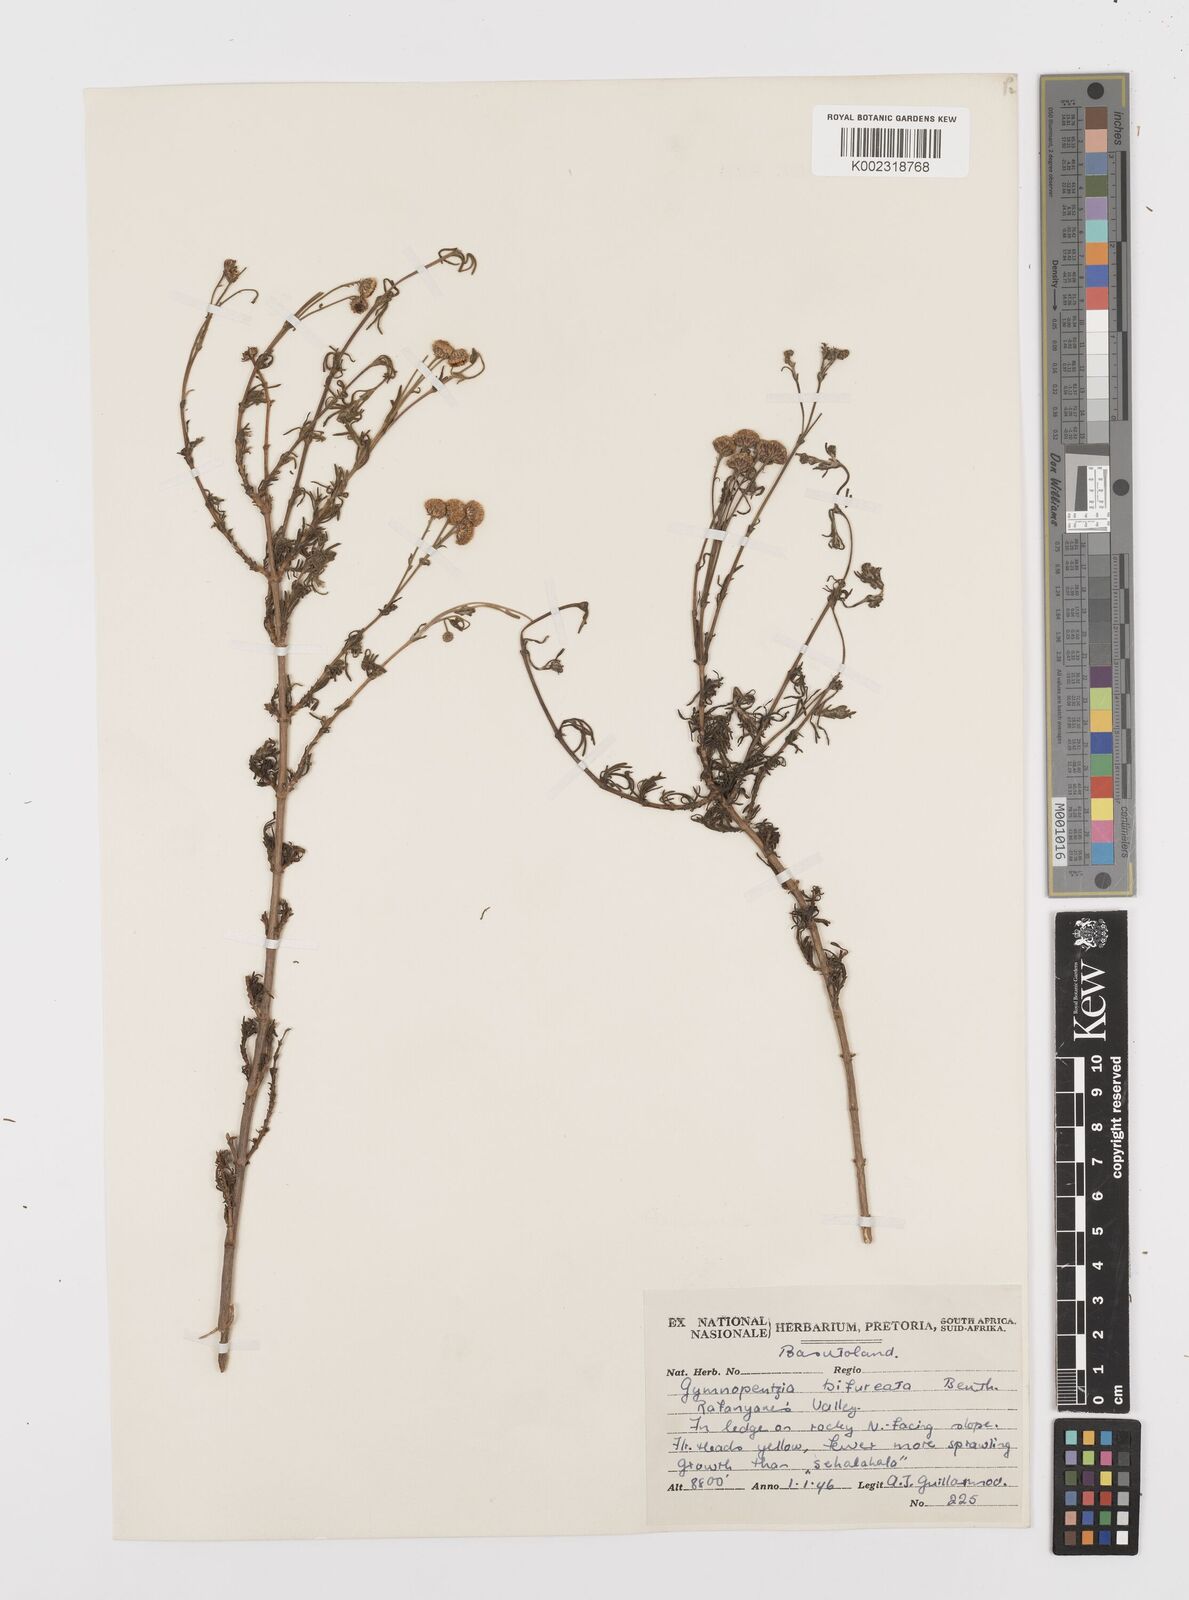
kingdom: Plantae
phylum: Tracheophyta
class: Magnoliopsida
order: Asterales
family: Asteraceae
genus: Gymnopentzia
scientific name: Gymnopentzia bifurcata
